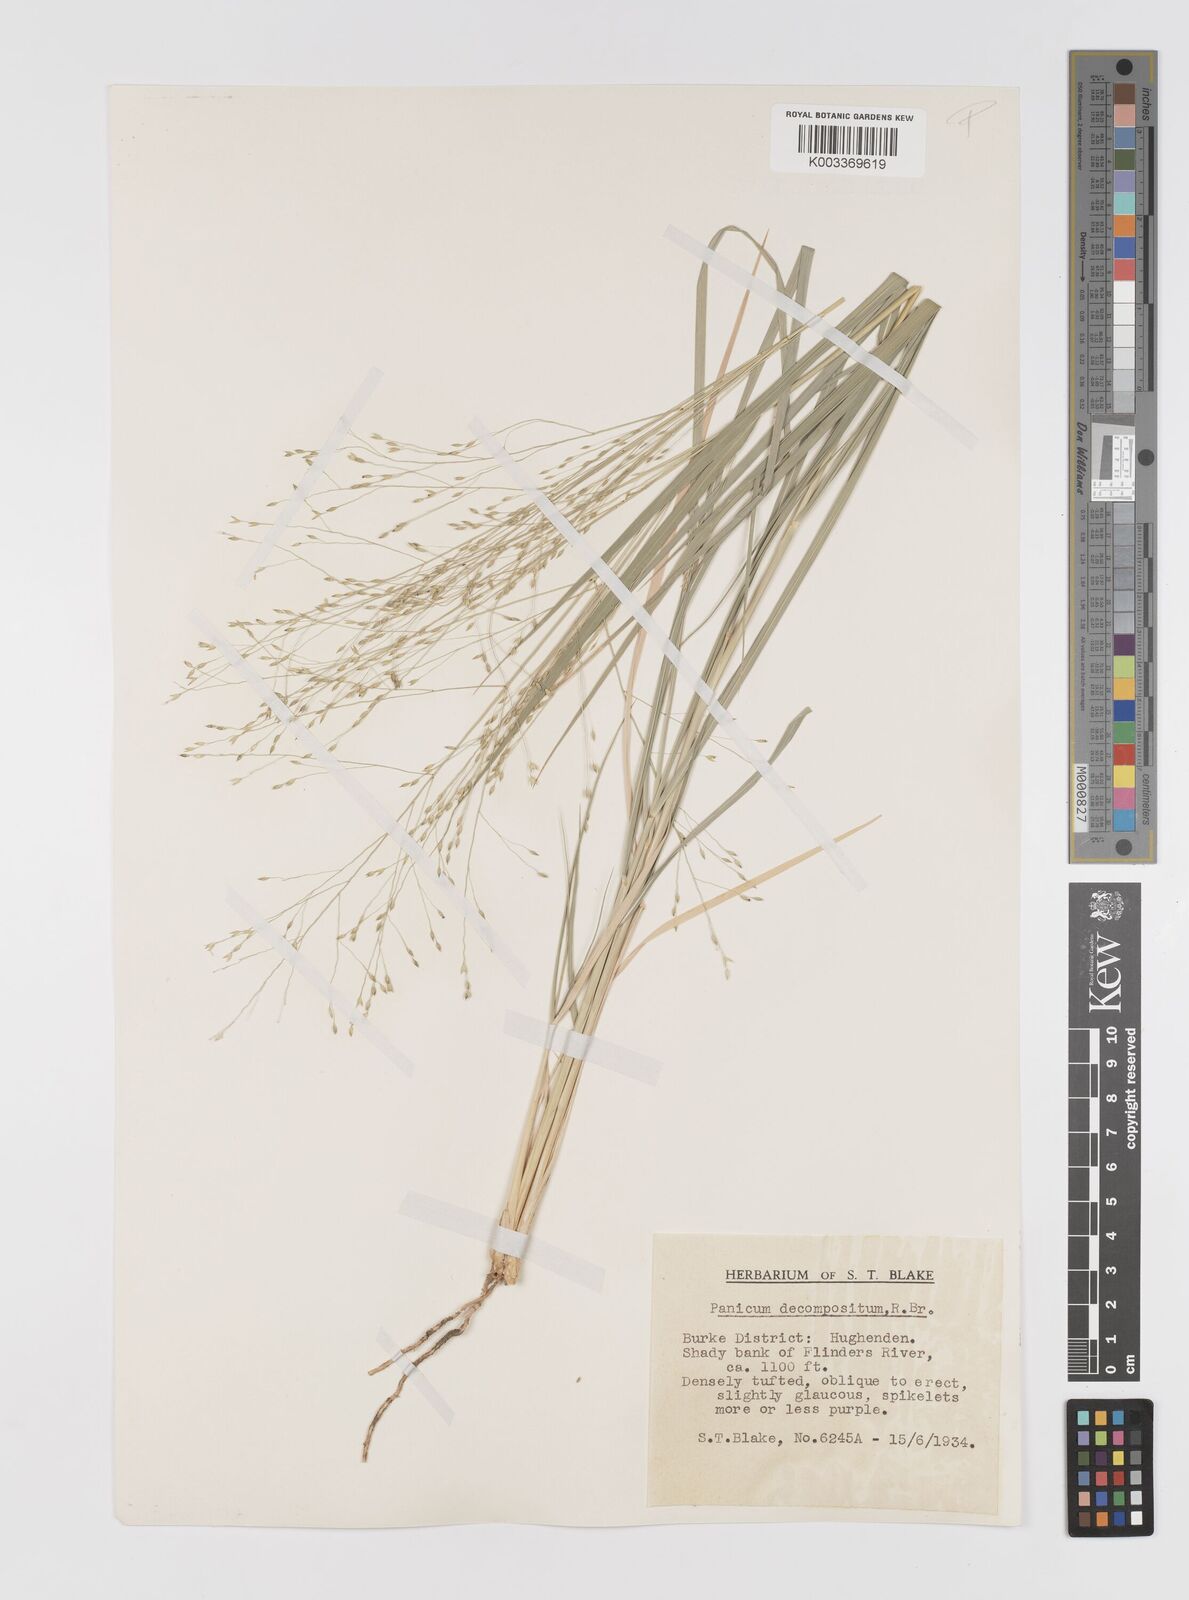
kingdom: Plantae
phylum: Tracheophyta
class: Liliopsida
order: Poales
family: Poaceae
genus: Panicum
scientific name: Panicum decompositum
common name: Australian millet
